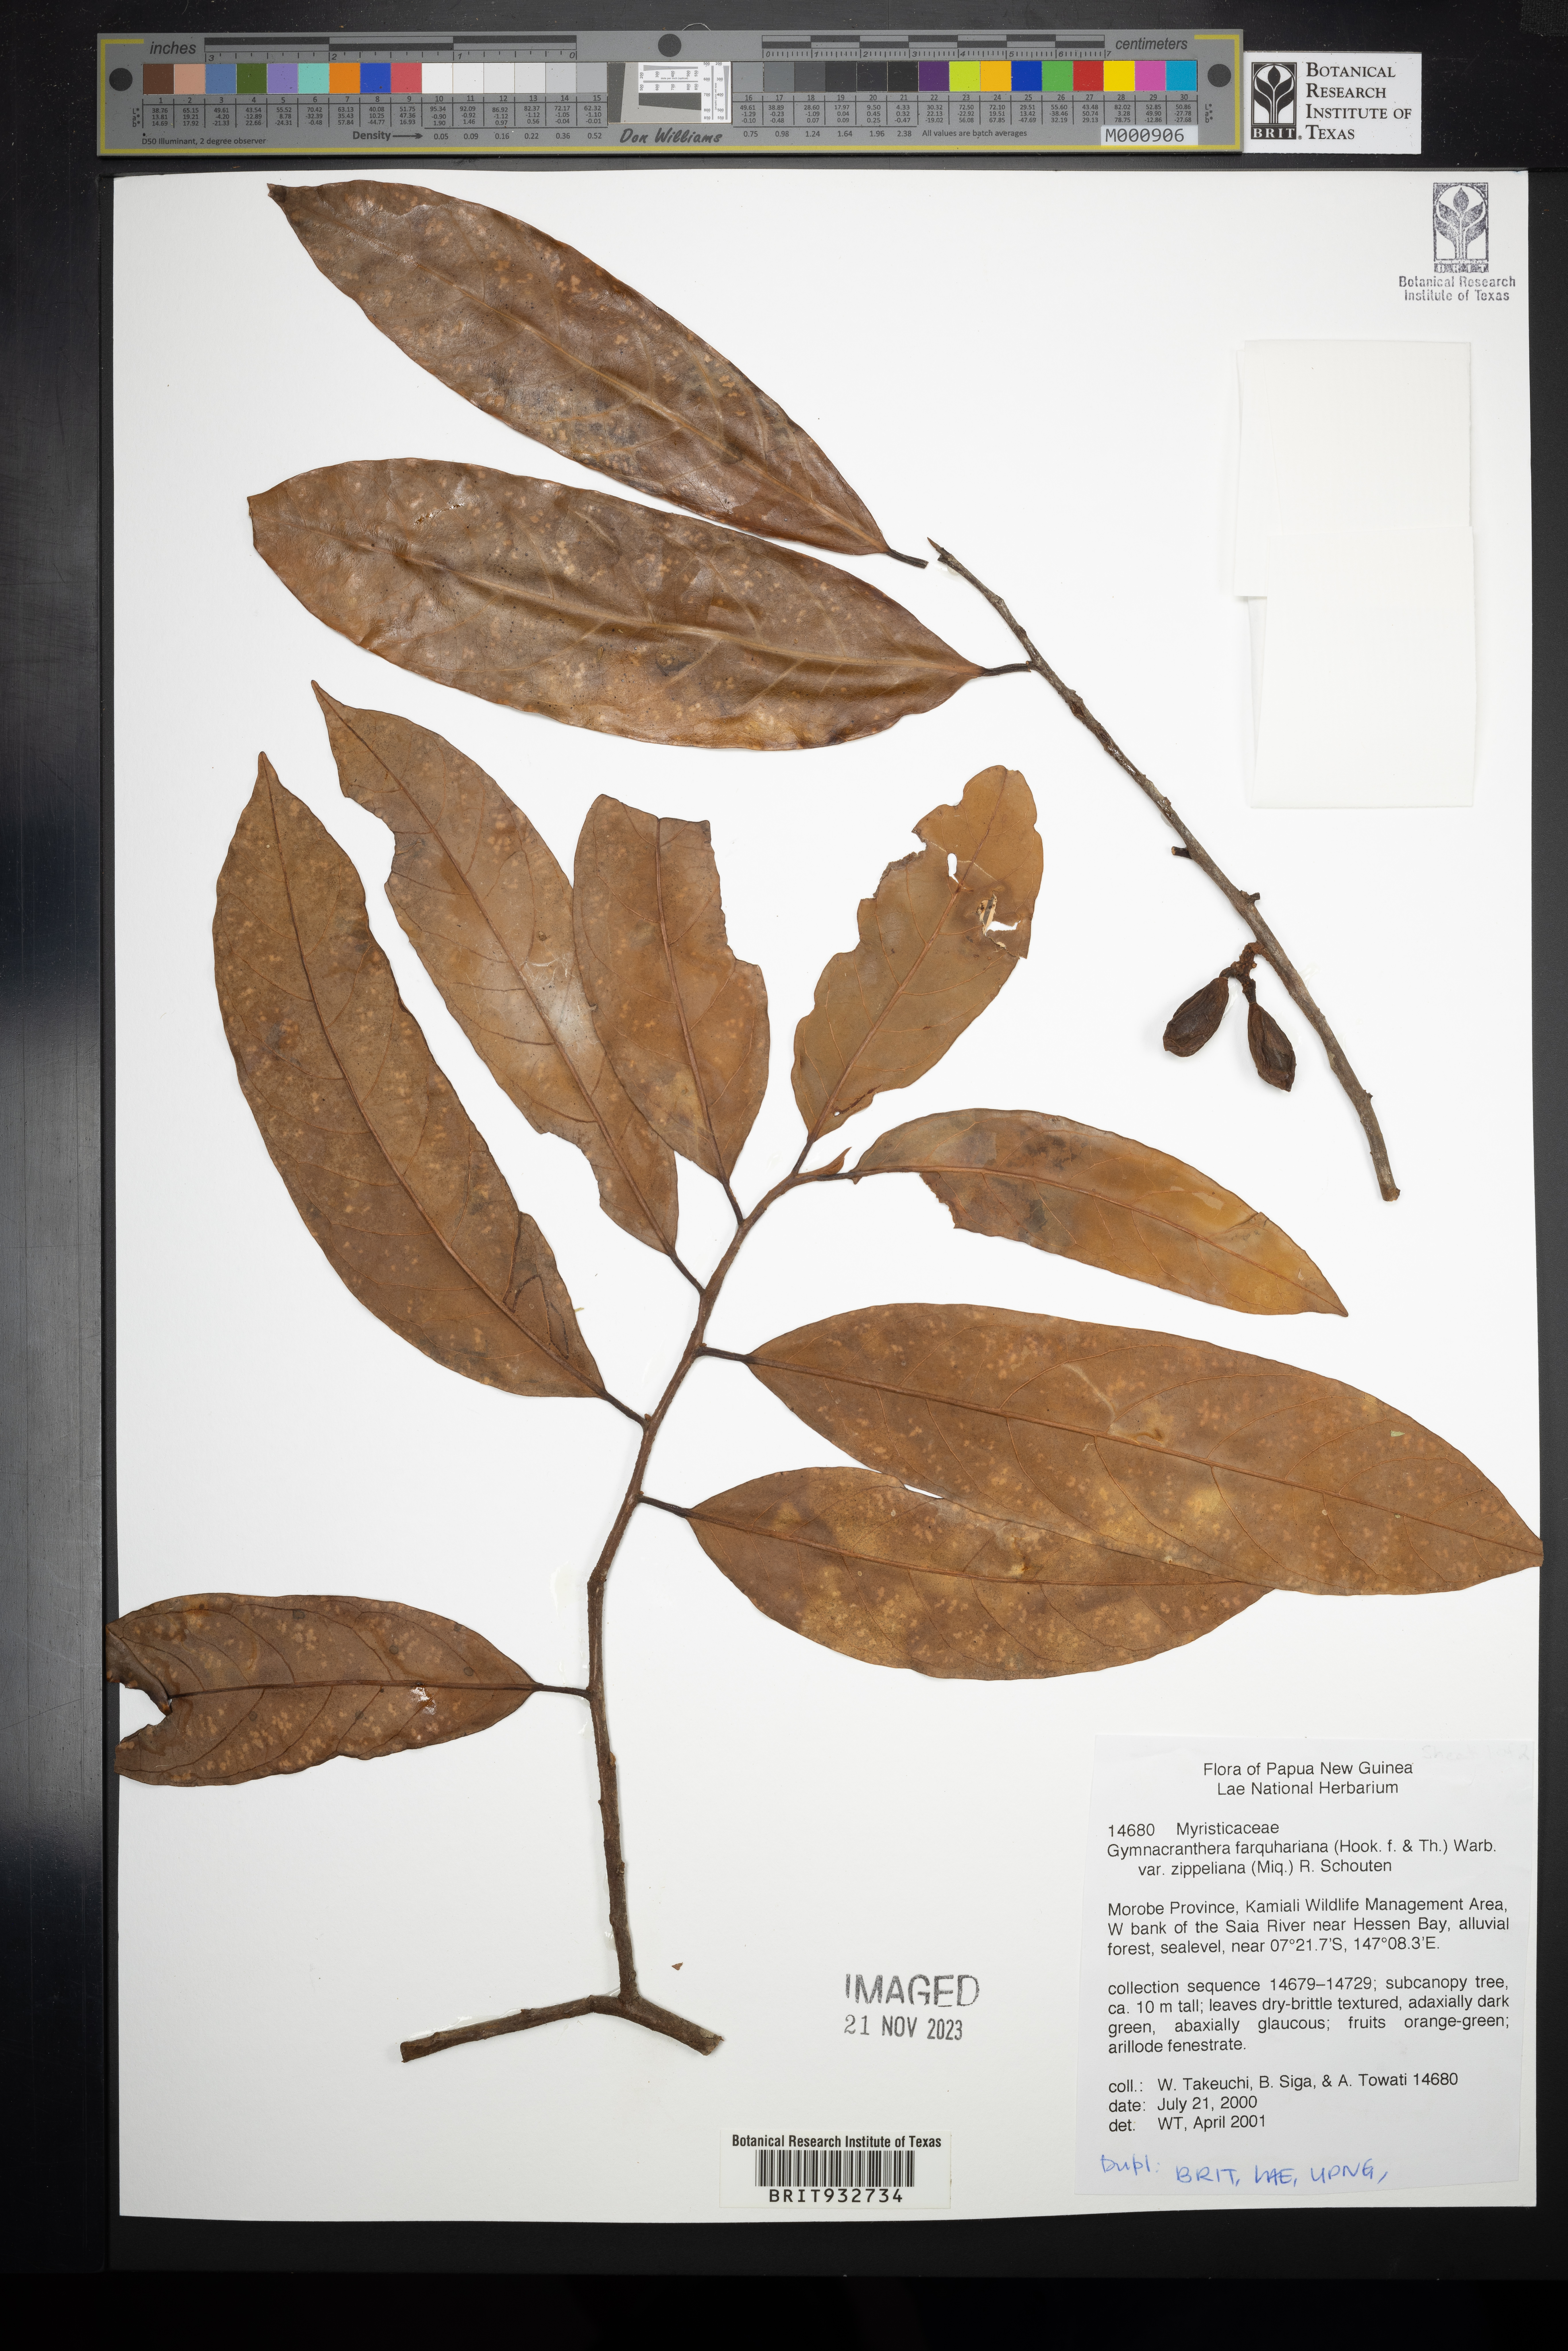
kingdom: Plantae
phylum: Tracheophyta
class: Magnoliopsida
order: Magnoliales
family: Myristicaceae
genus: Gymnacranthera
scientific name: Gymnacranthera
